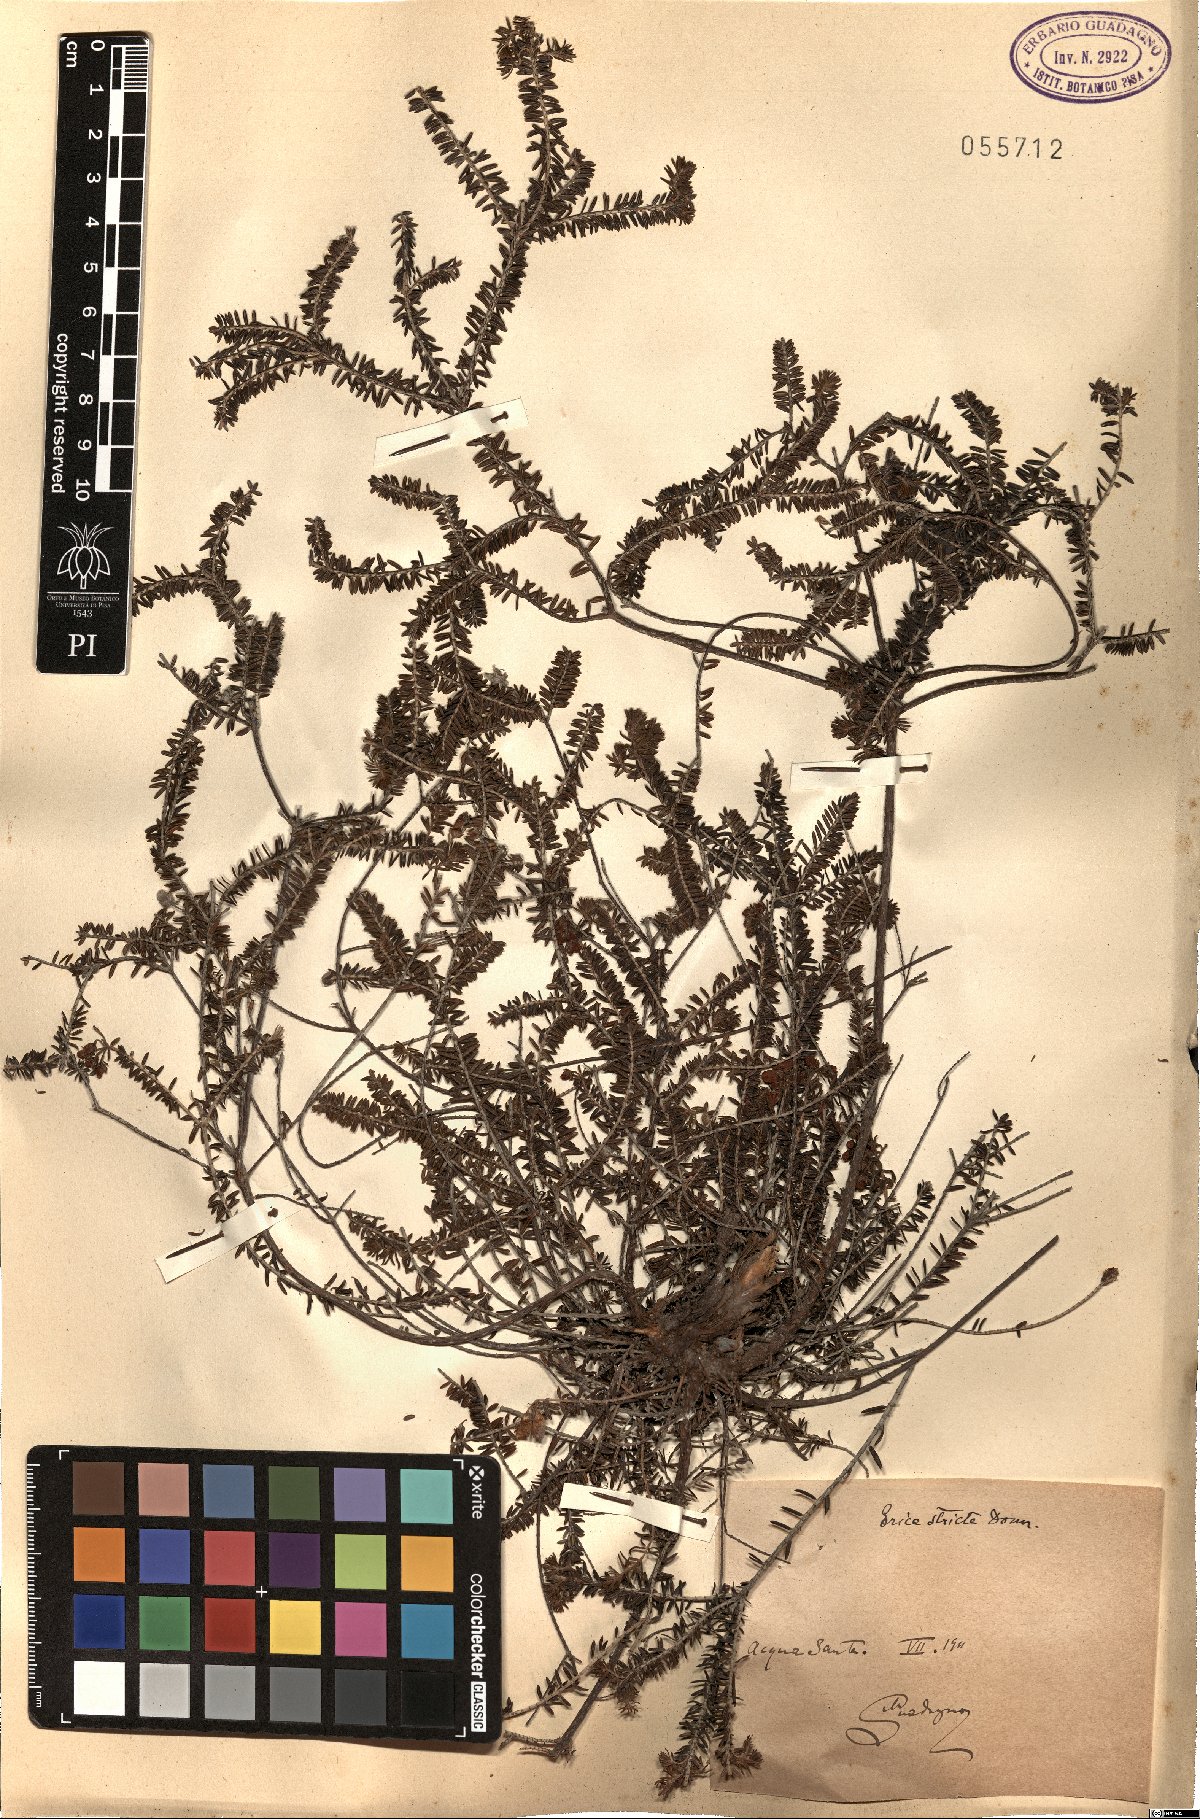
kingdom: Plantae
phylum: Tracheophyta
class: Magnoliopsida
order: Ericales
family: Ericaceae
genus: Erica
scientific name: Erica terminalis
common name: Corsican heath
